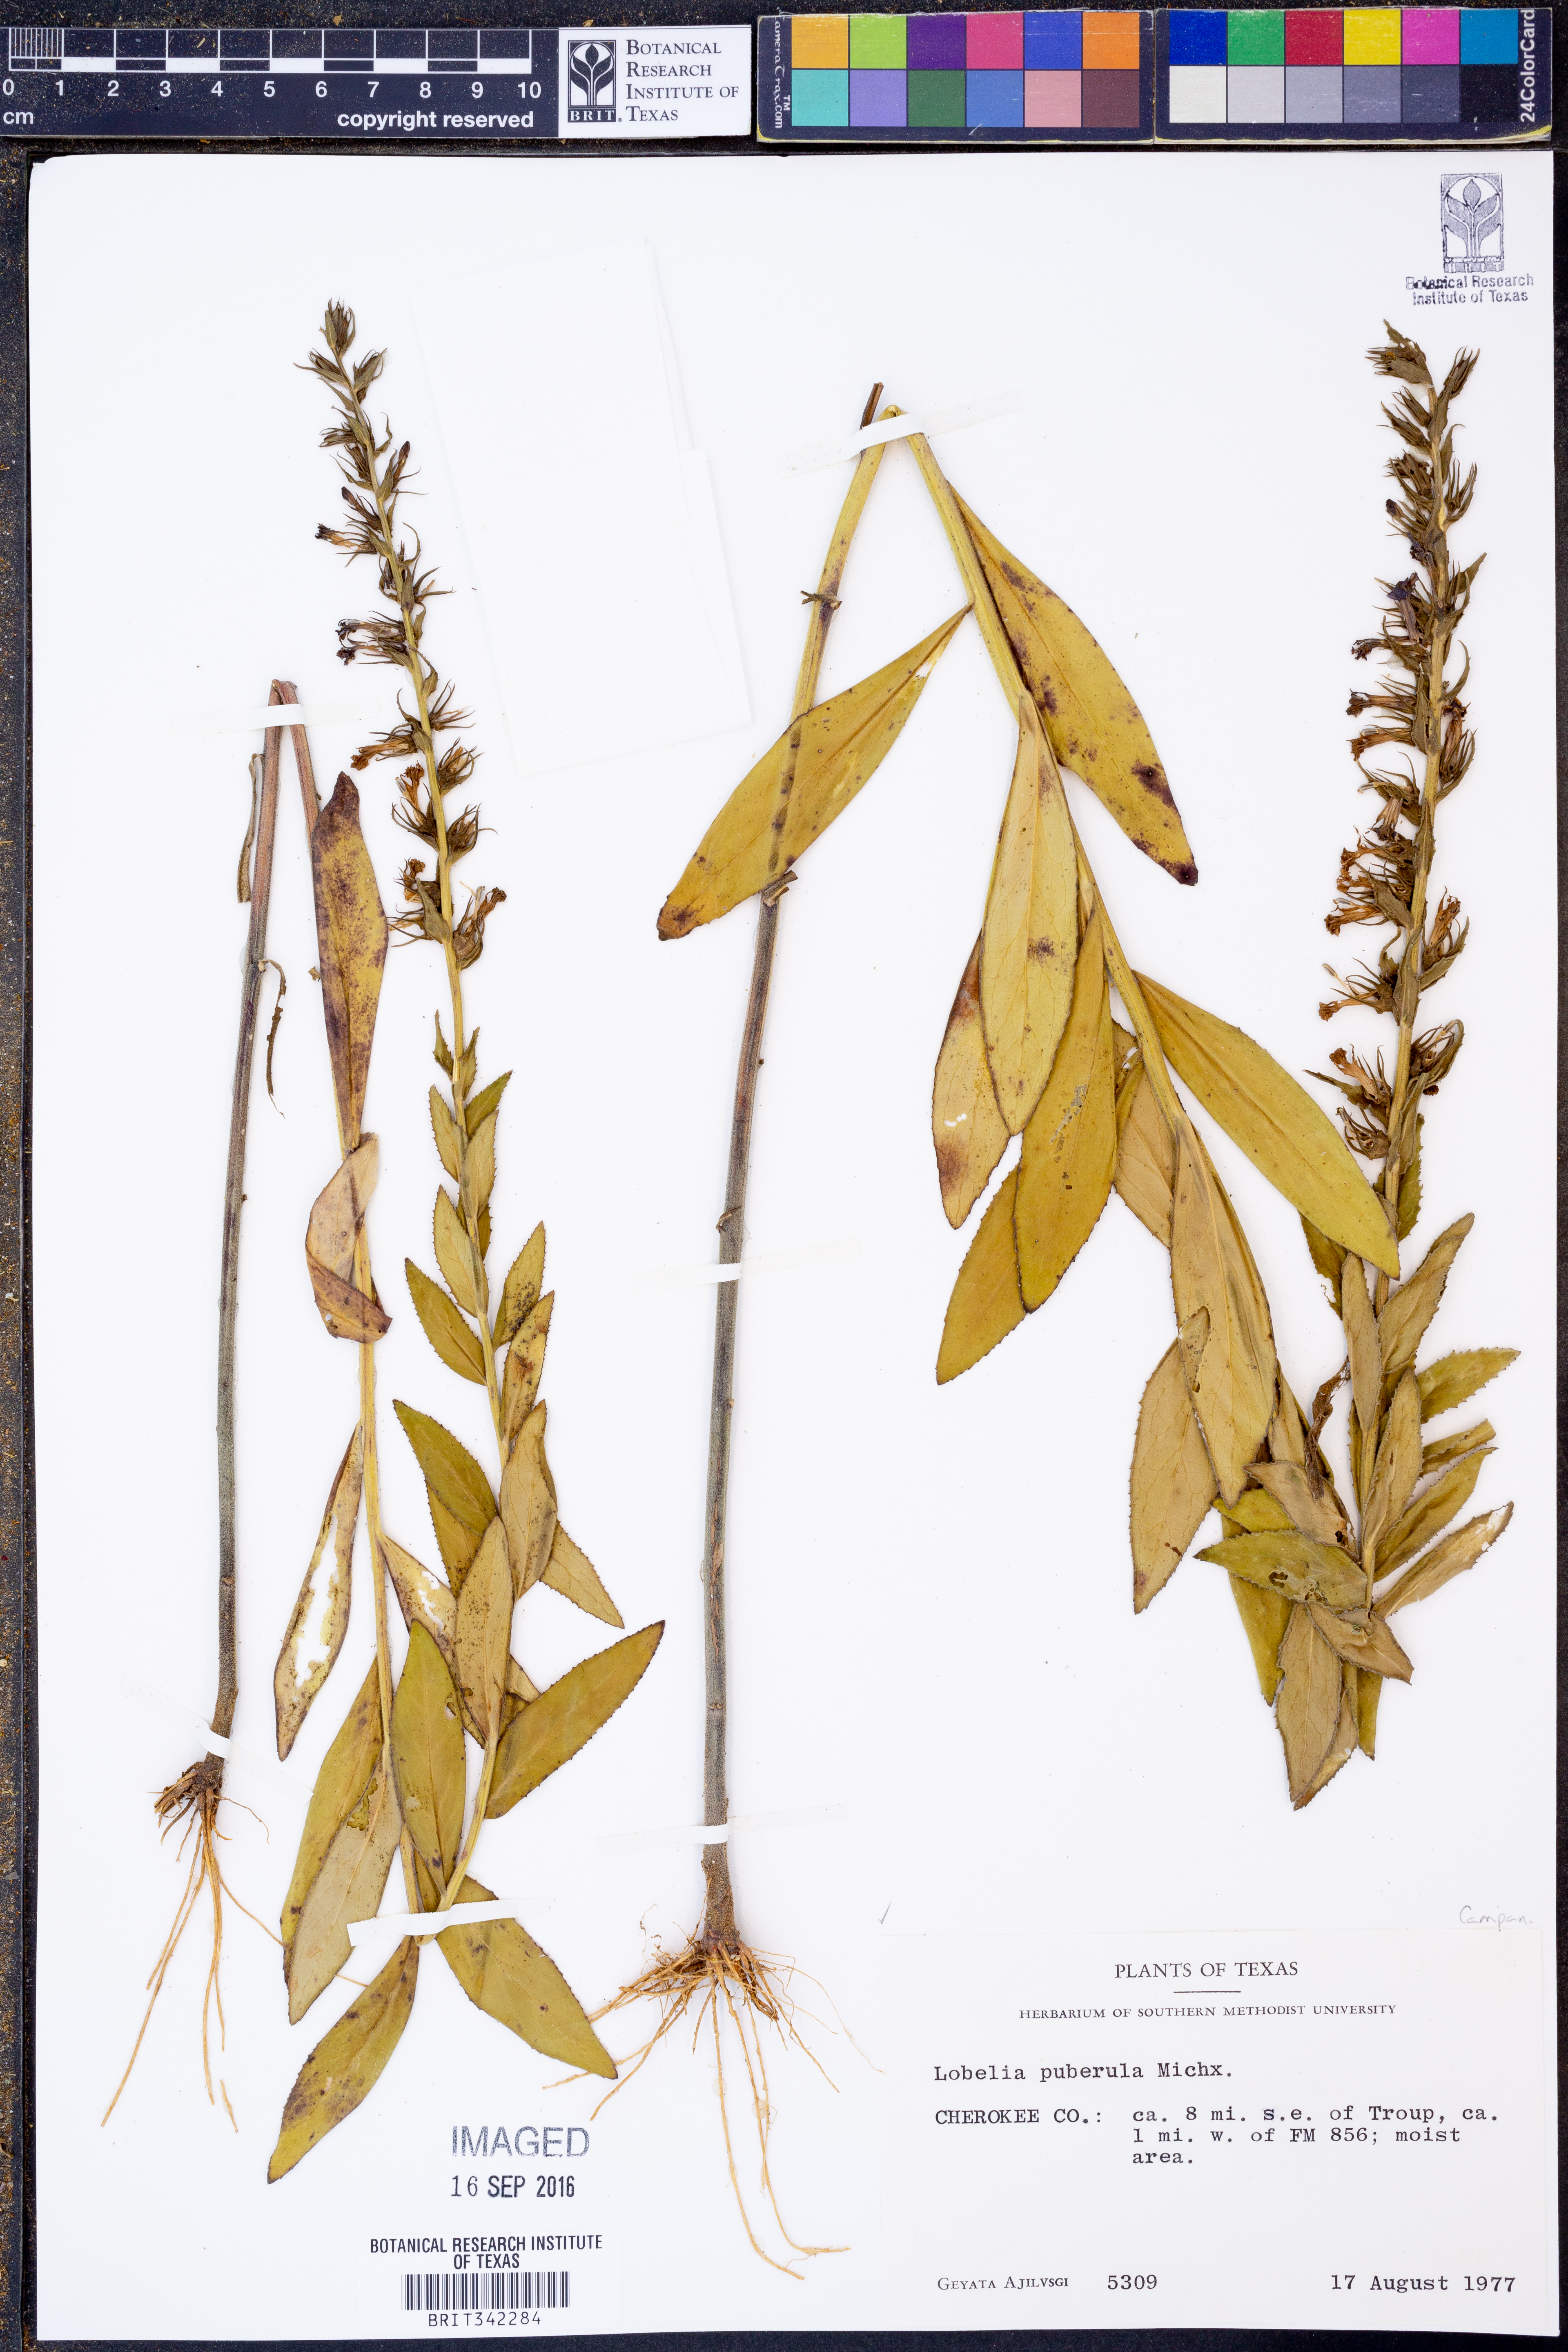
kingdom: Plantae
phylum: Tracheophyta
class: Magnoliopsida
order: Asterales
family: Campanulaceae
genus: Lobelia
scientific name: Lobelia puberula
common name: Purple dewdrop
